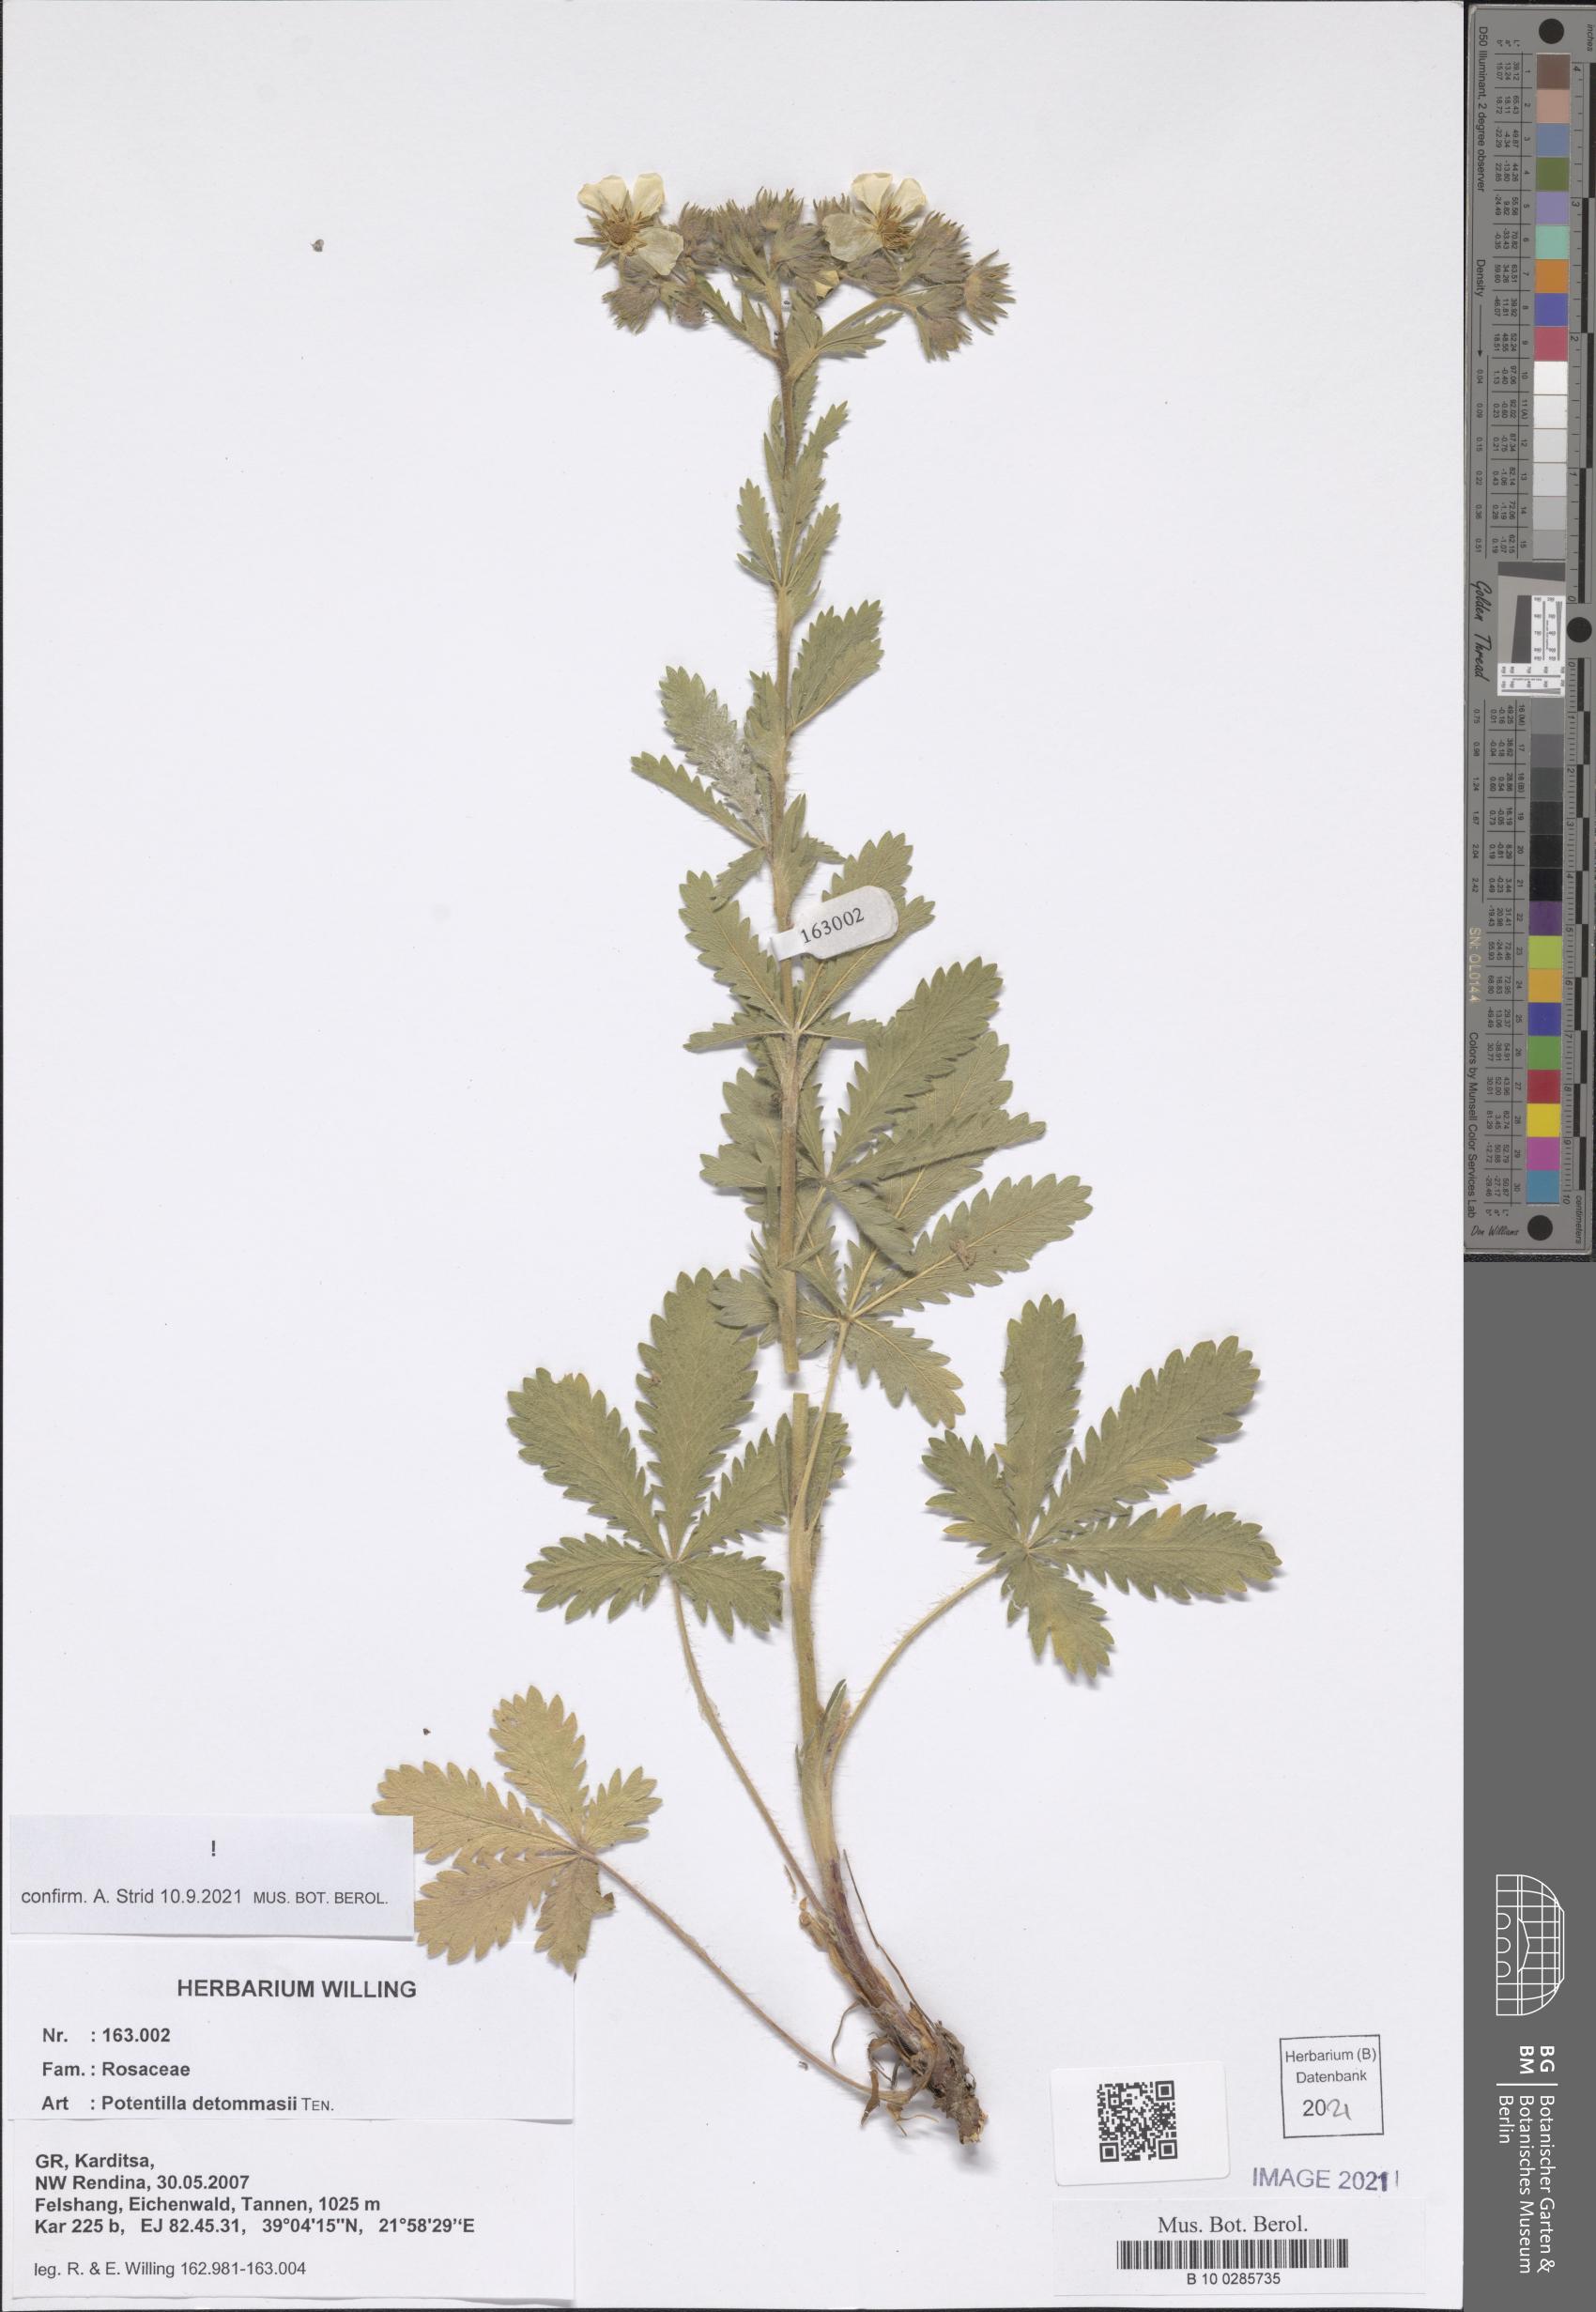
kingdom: Plantae
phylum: Tracheophyta
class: Magnoliopsida
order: Rosales
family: Rosaceae
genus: Potentilla
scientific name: Potentilla detommasii
